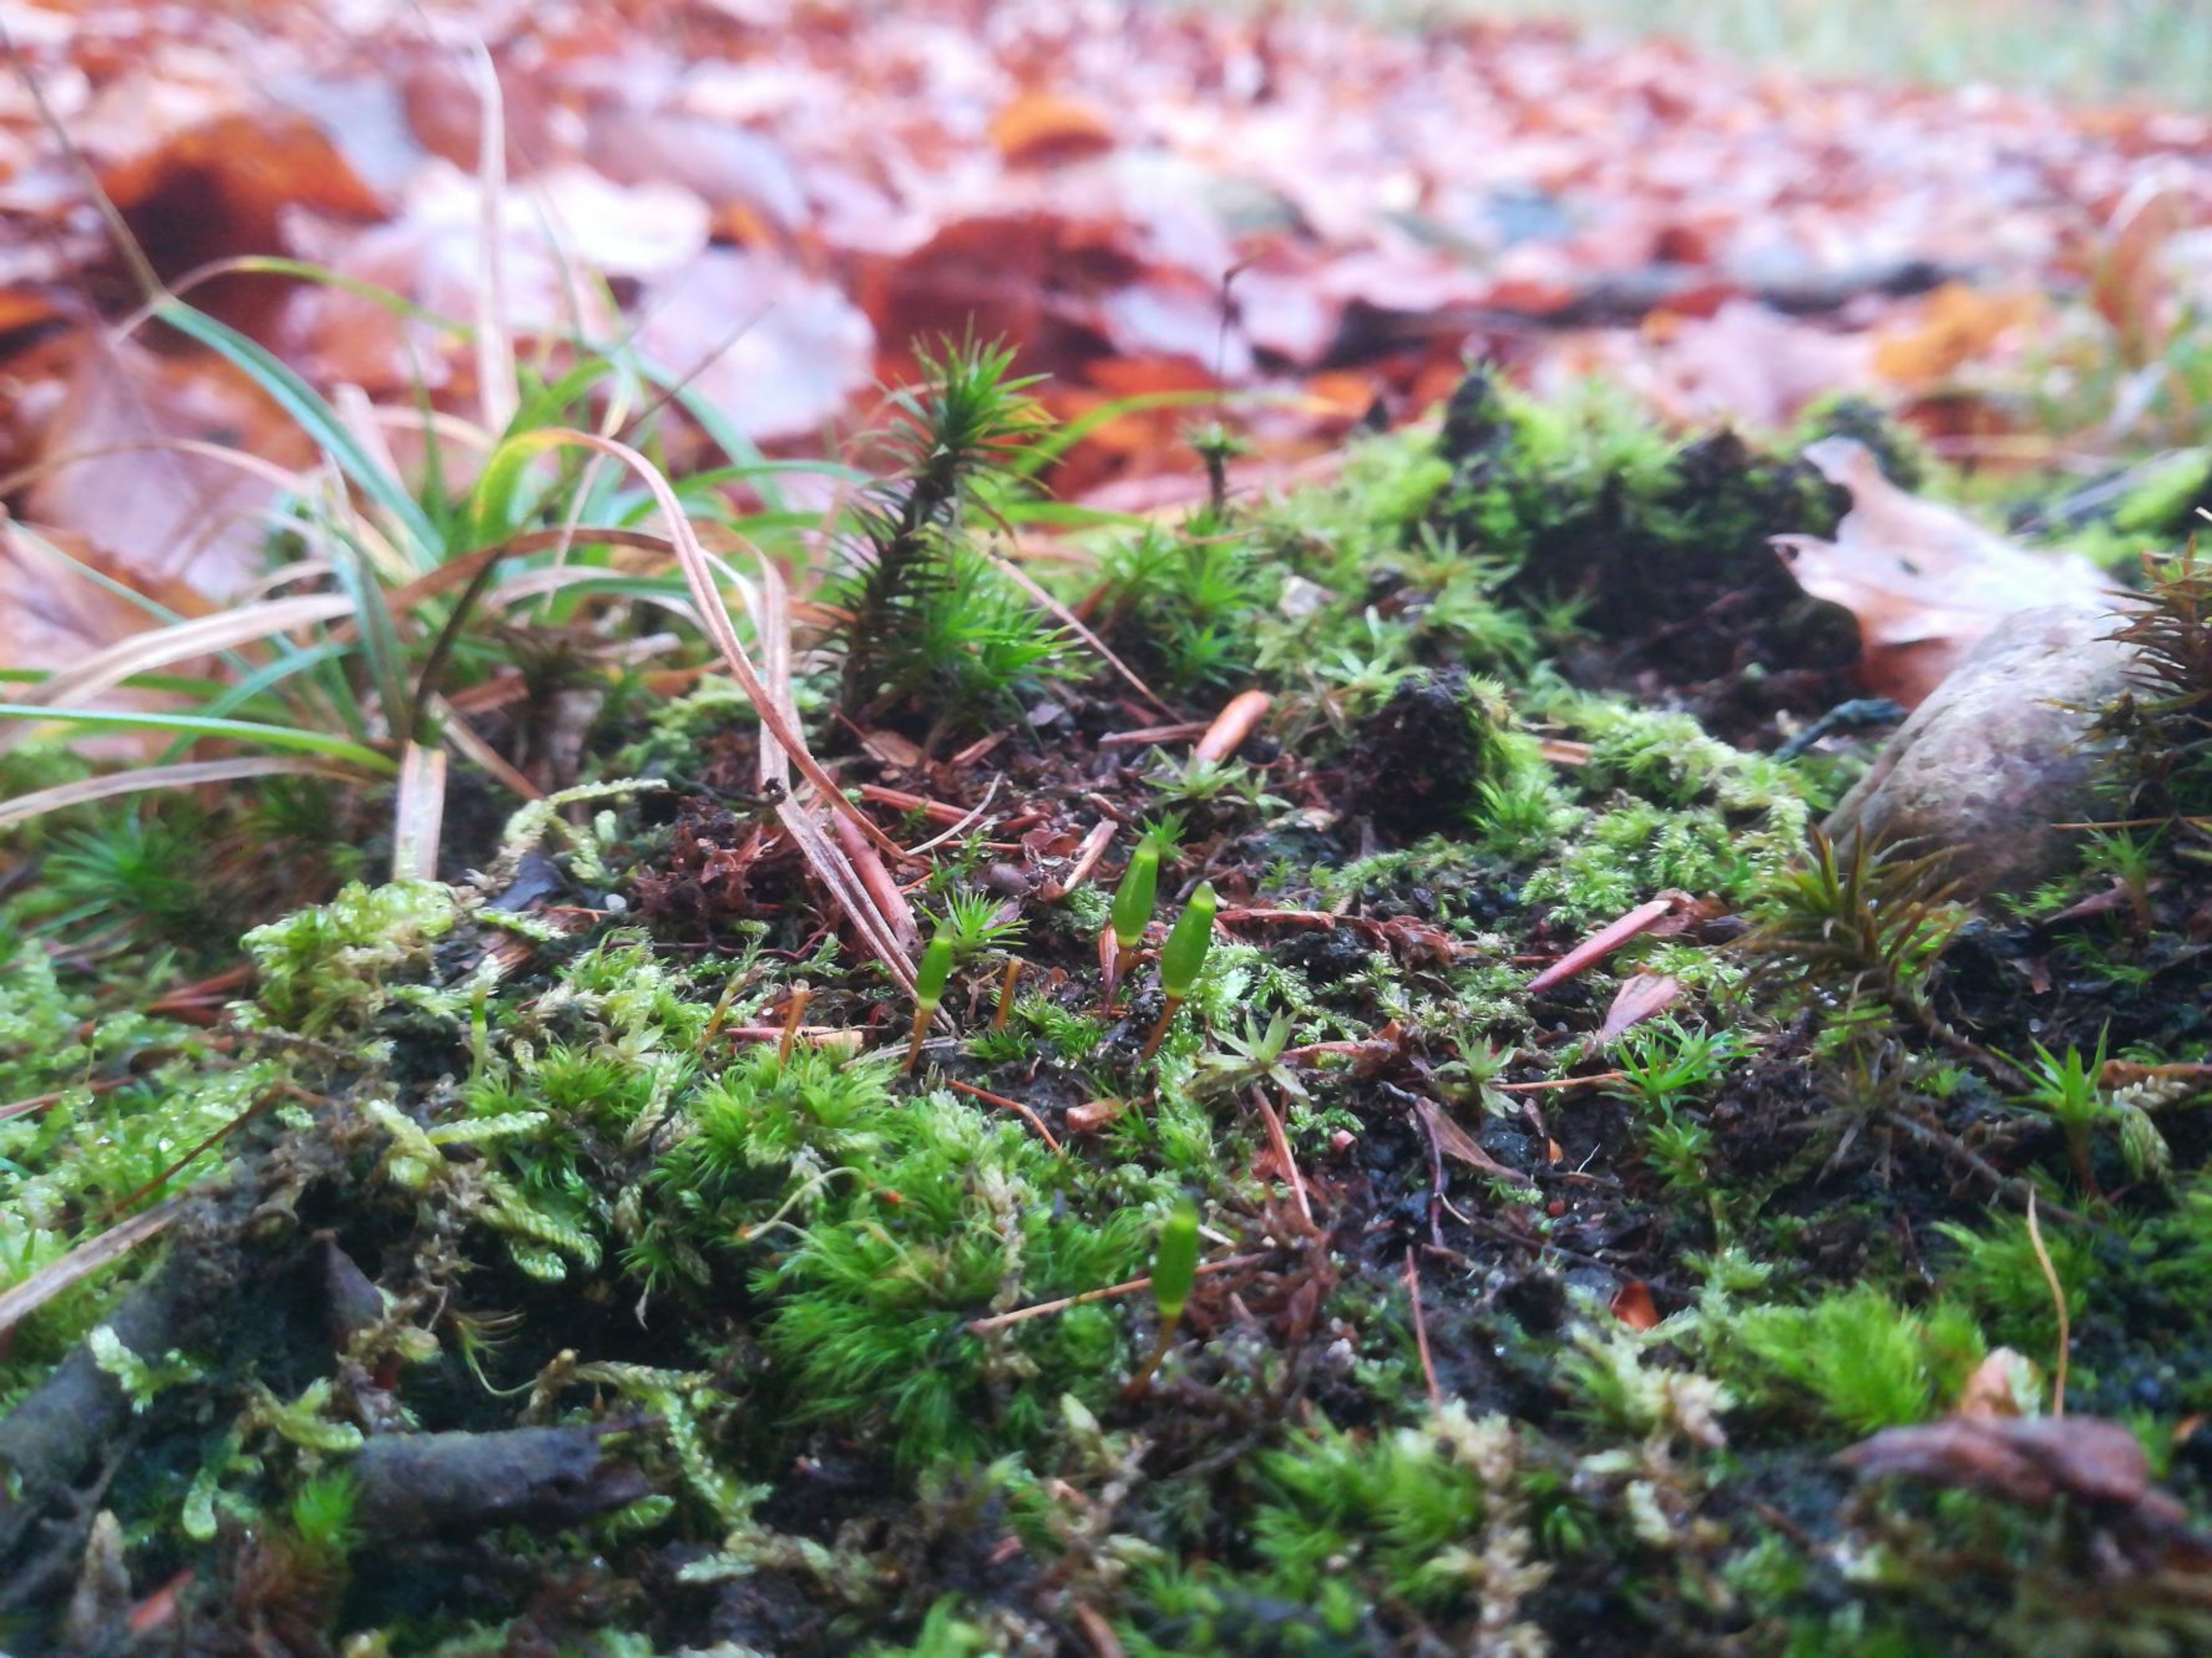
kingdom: Plantae
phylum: Bryophyta
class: Bryopsida
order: Buxbaumiales
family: Buxbaumiaceae
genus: Buxbaumia
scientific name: Buxbaumia viridis
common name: Grøn buxbaumia
